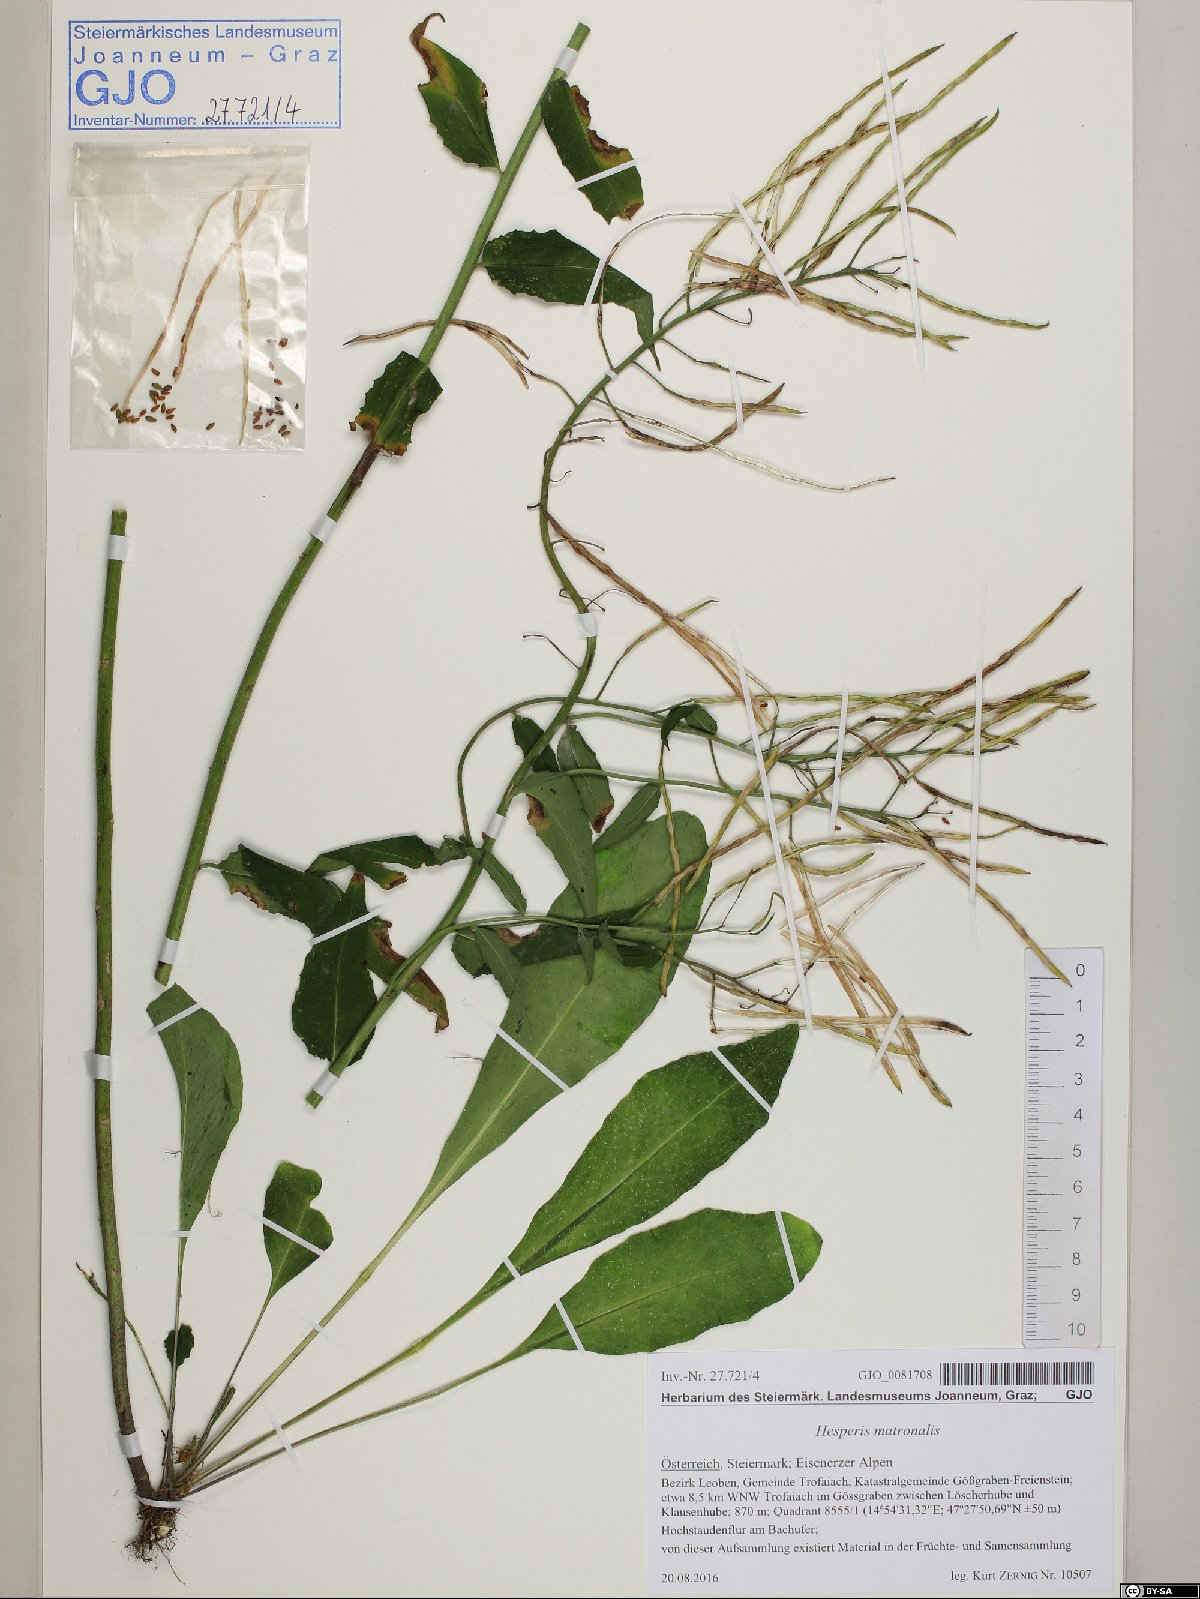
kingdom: Plantae
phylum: Tracheophyta
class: Magnoliopsida
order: Brassicales
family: Brassicaceae
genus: Hesperis
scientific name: Hesperis matronalis
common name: Dame's-violet
